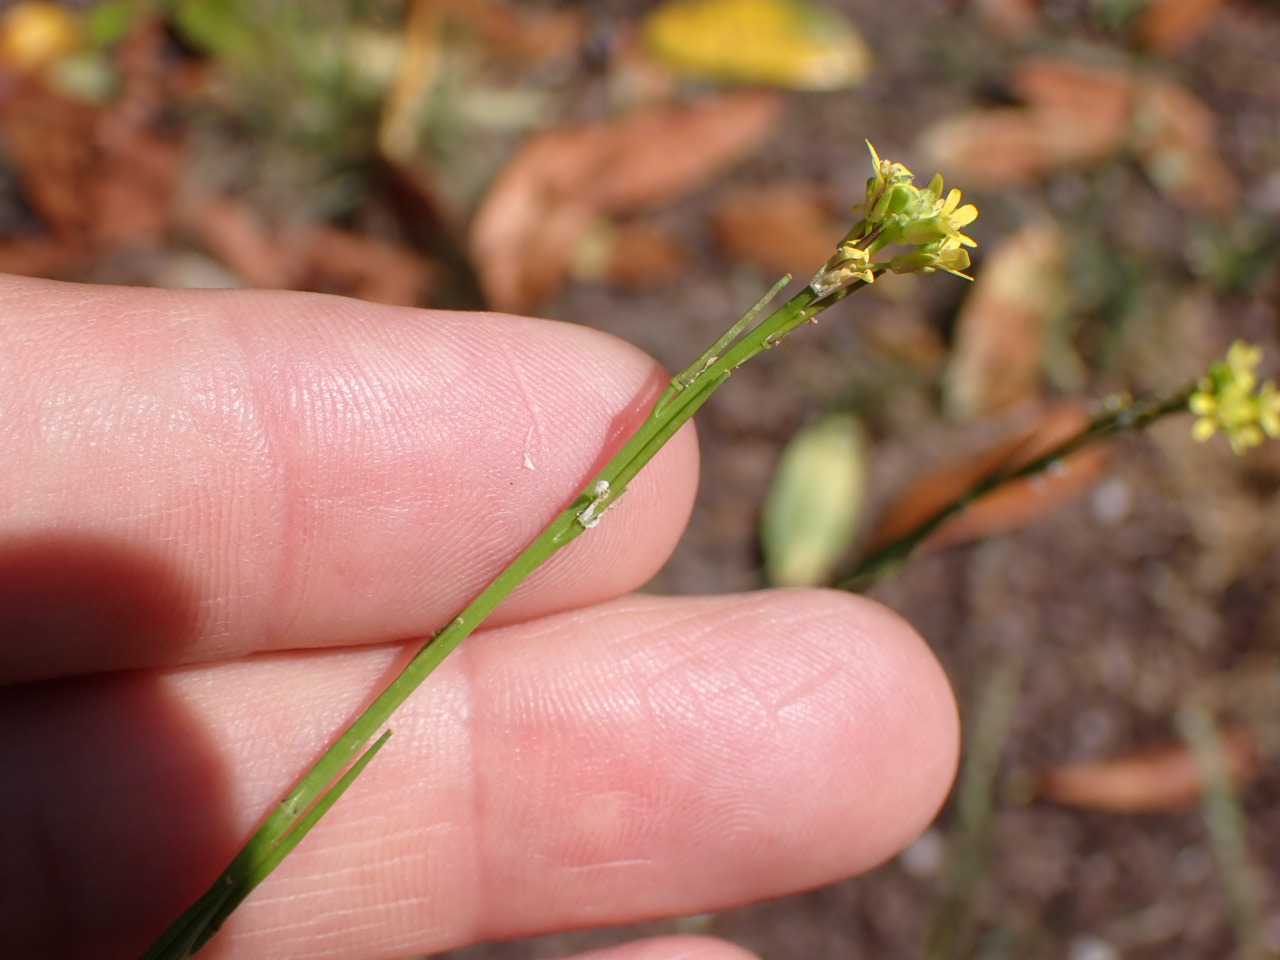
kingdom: Plantae
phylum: Tracheophyta
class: Magnoliopsida
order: Brassicales
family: Brassicaceae
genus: Sisymbrium
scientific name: Sisymbrium officinale
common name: Rank vejsennep
